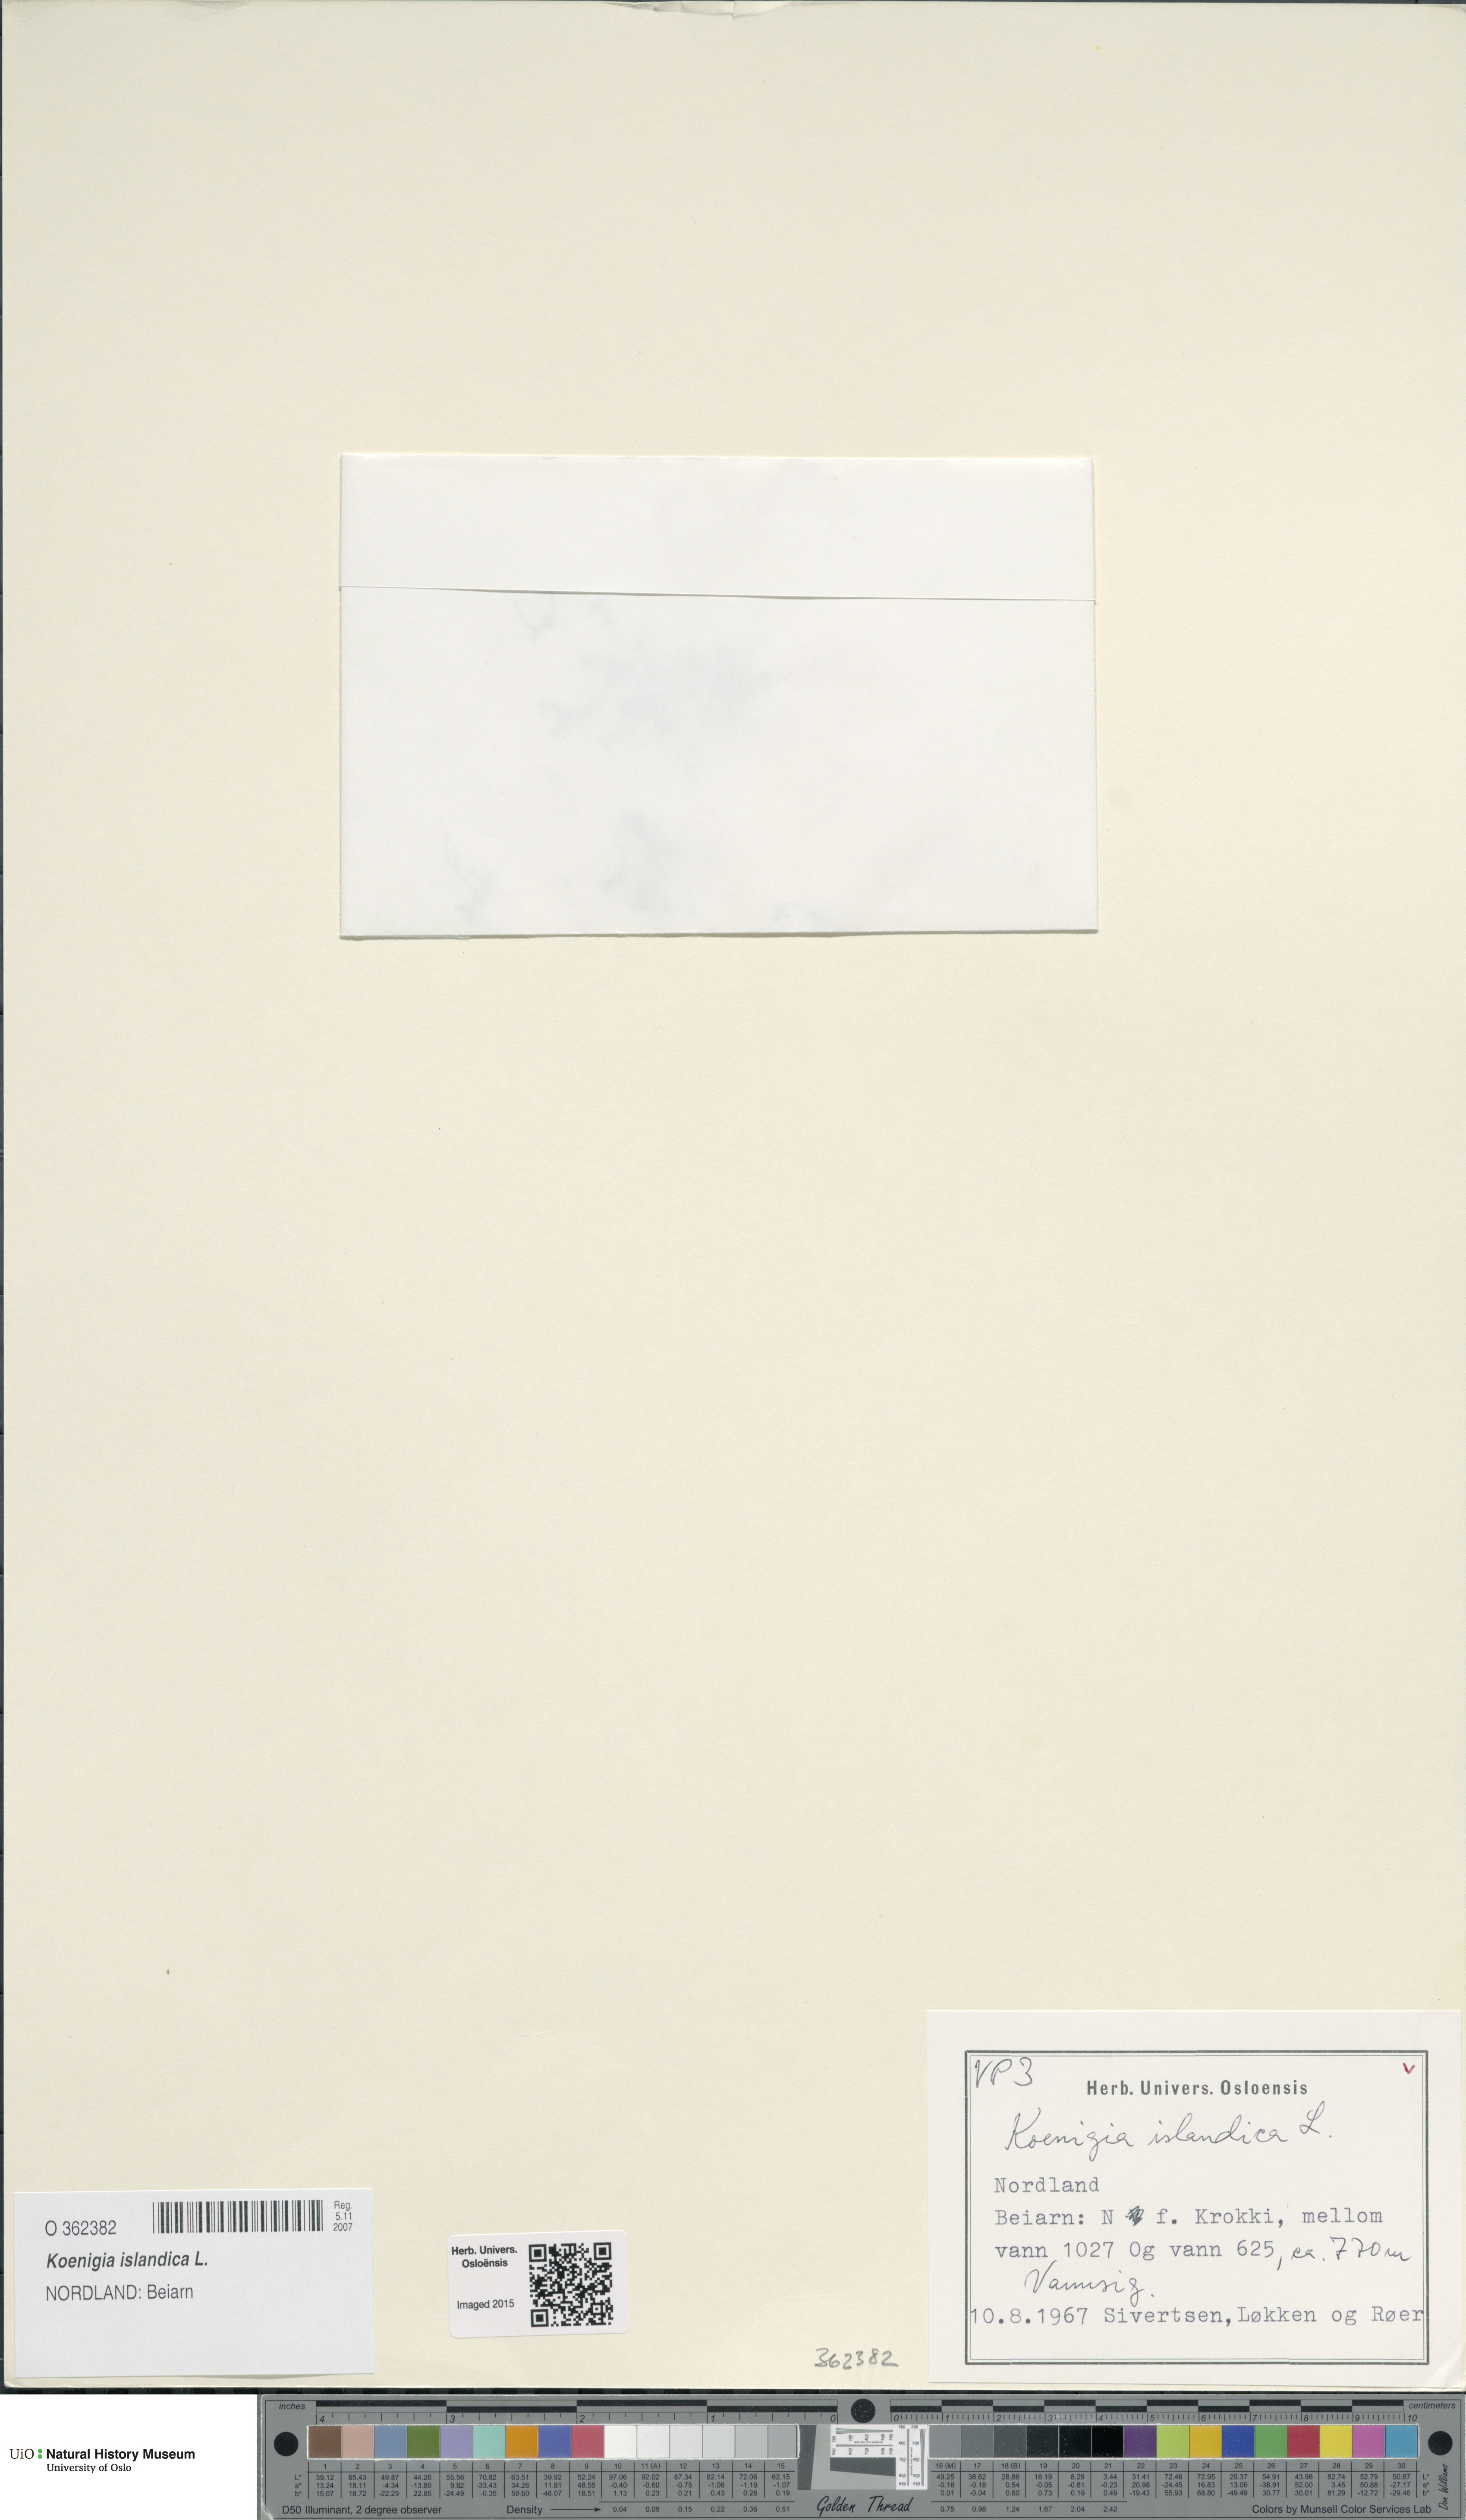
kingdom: Plantae
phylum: Tracheophyta
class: Magnoliopsida
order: Caryophyllales
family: Polygonaceae
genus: Koenigia
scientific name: Koenigia islandica
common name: Iceland-purslane
